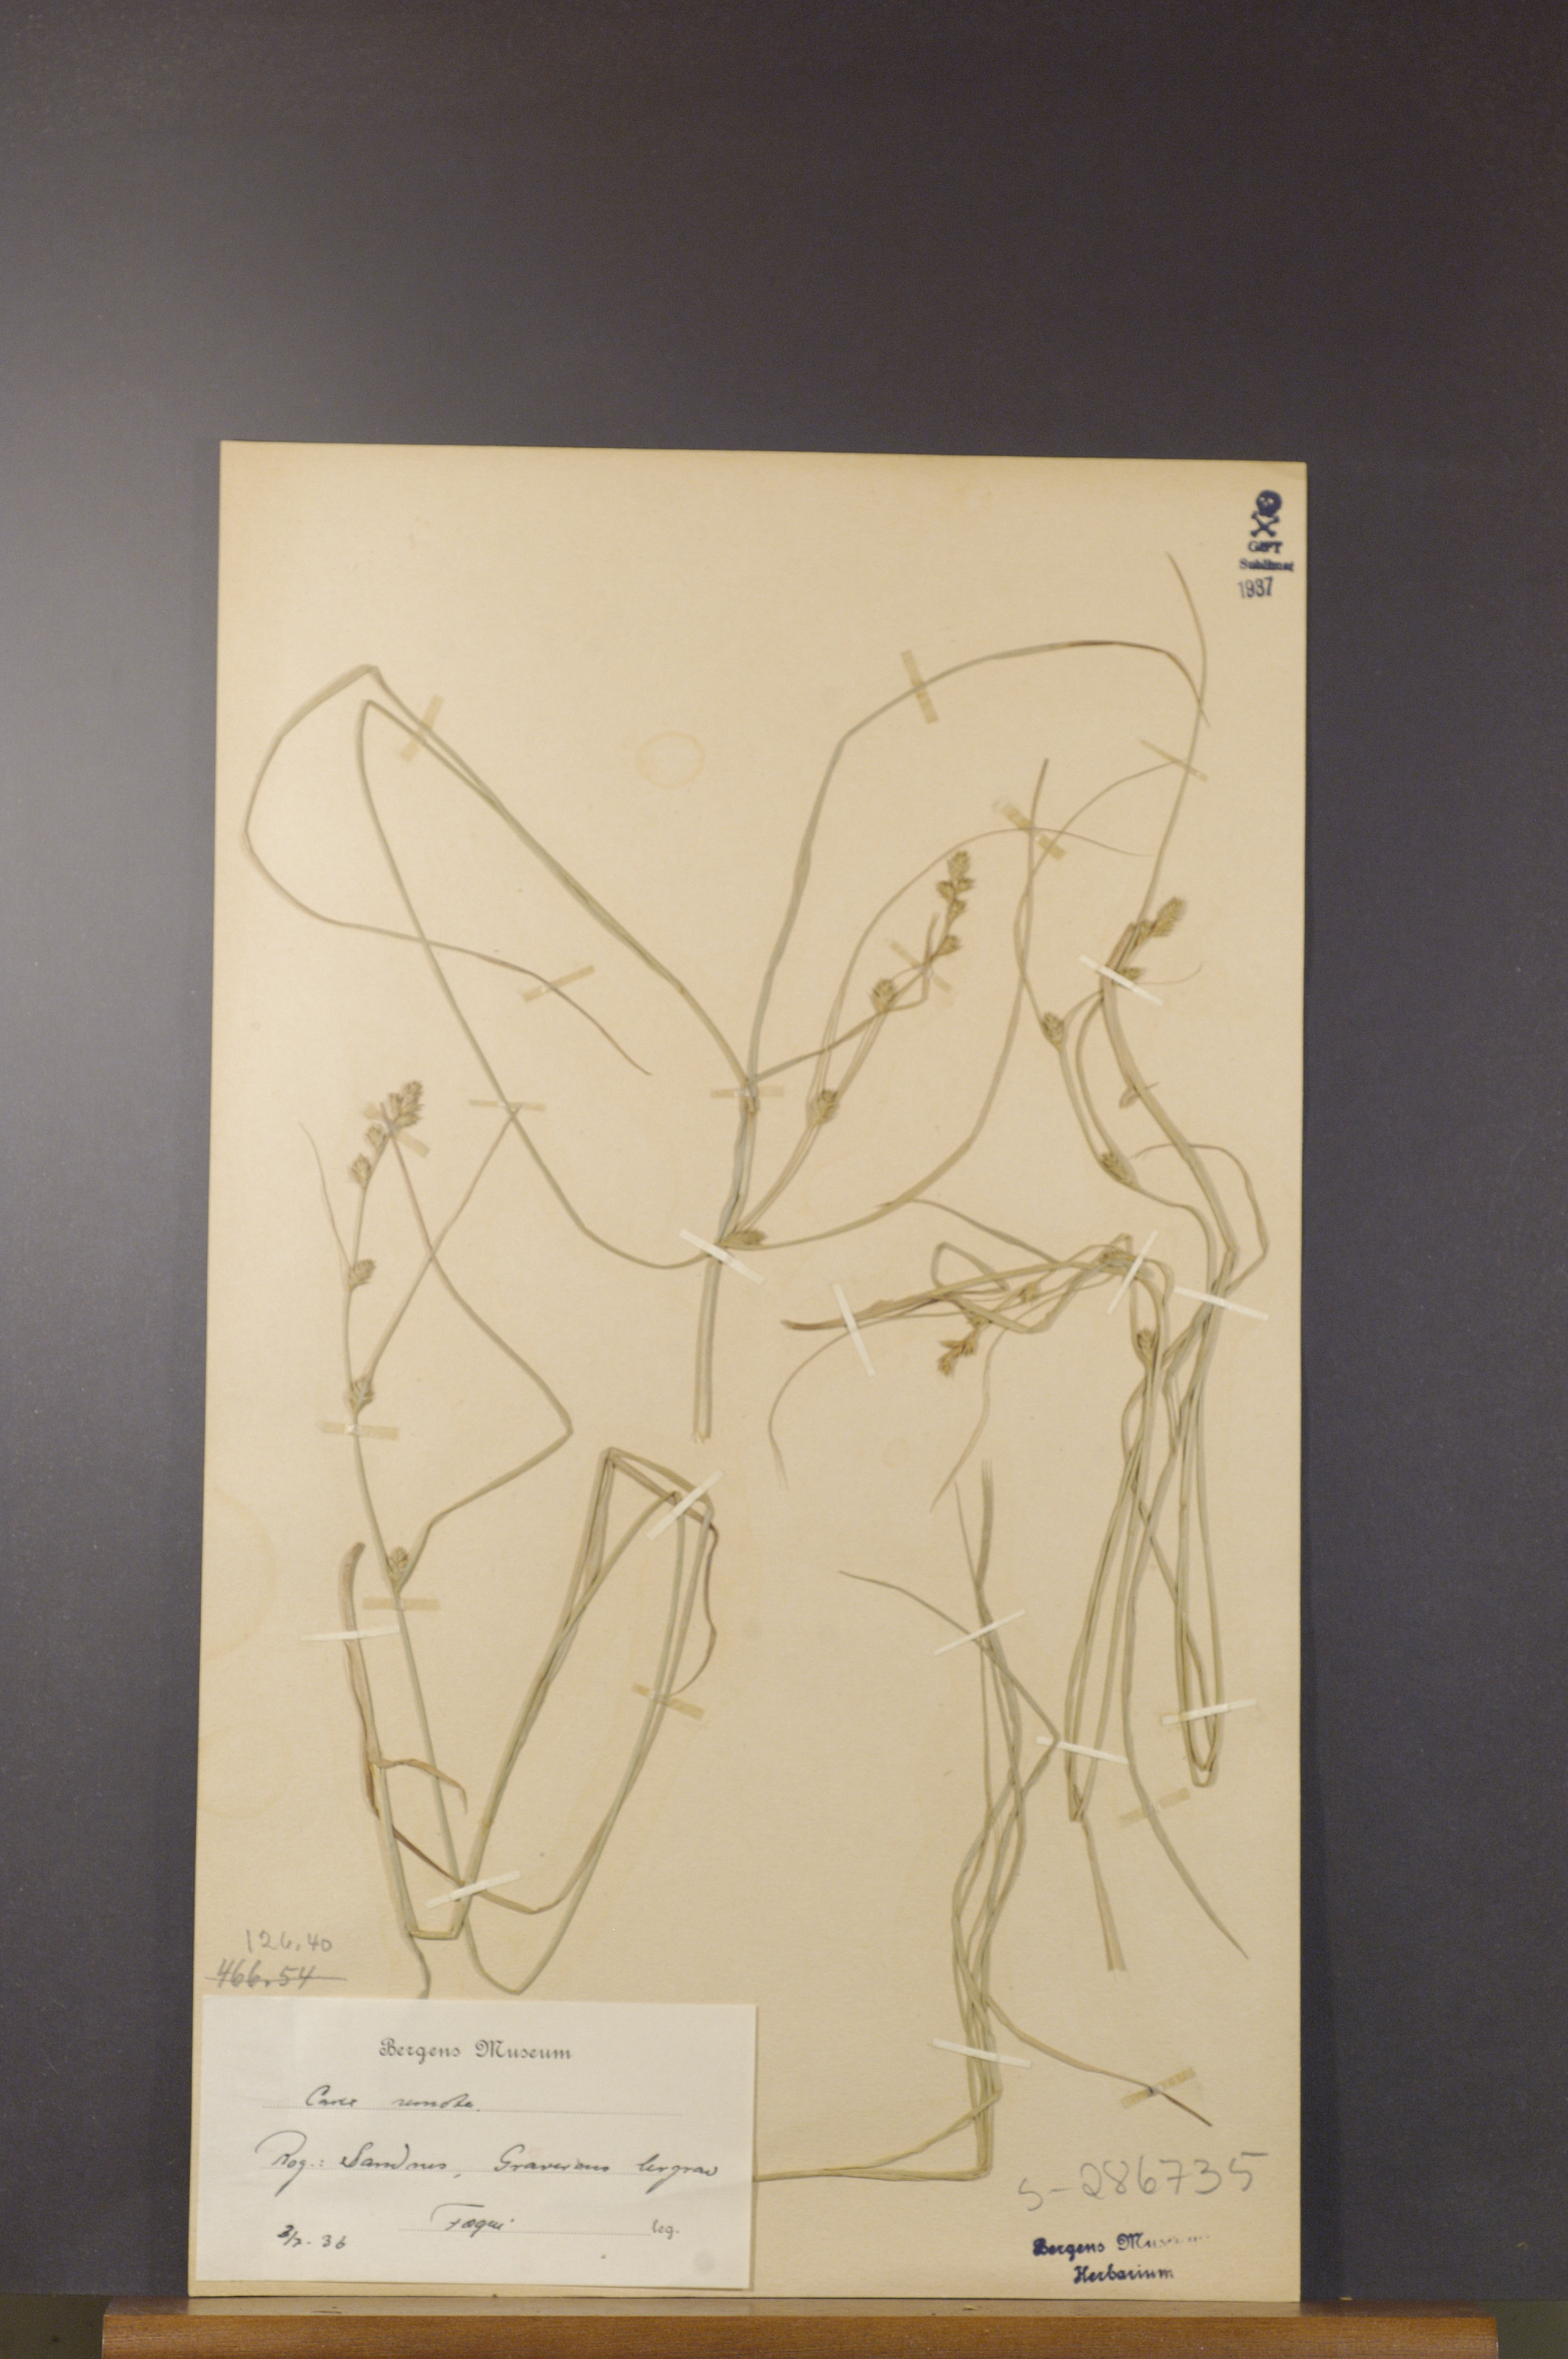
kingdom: Plantae
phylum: Tracheophyta
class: Liliopsida
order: Poales
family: Cyperaceae
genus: Carex
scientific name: Carex remota
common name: Remote sedge
